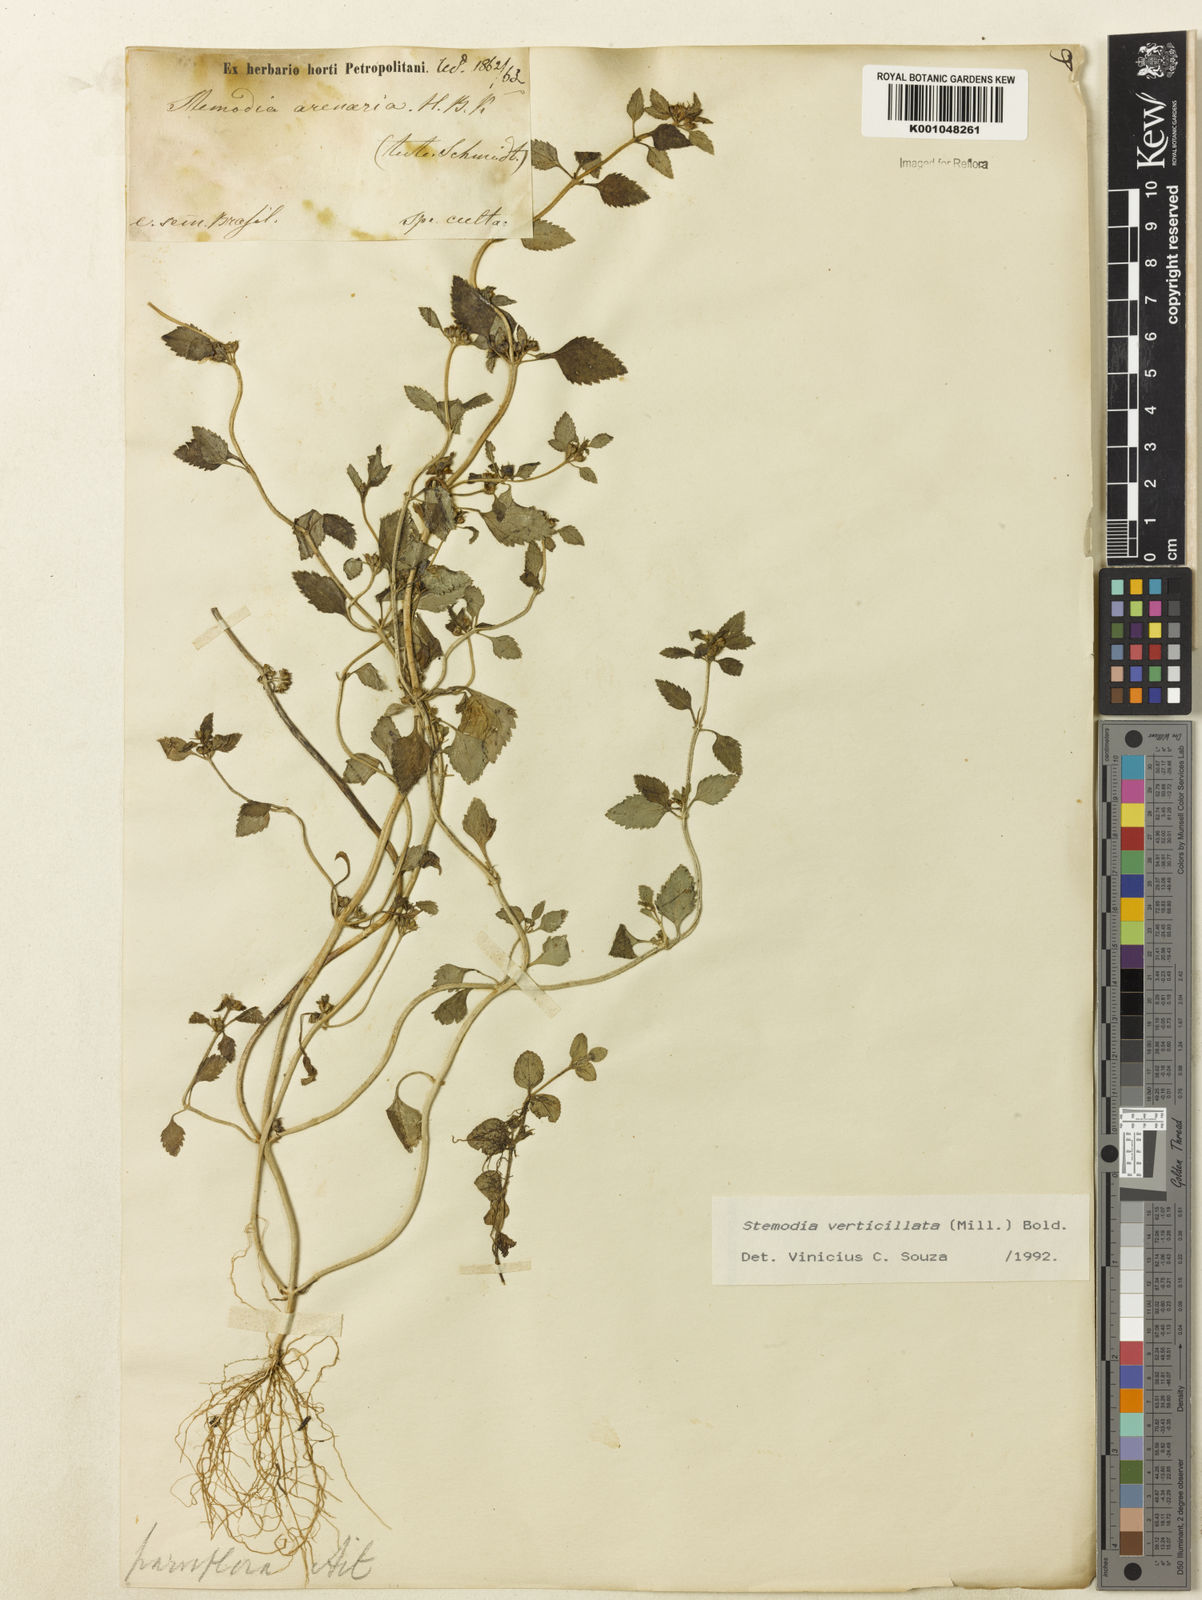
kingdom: Plantae
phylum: Tracheophyta
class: Magnoliopsida
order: Lamiales
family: Plantaginaceae
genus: Stemodia
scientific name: Stemodia verticillata
